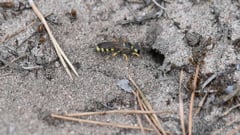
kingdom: Animalia
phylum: Arthropoda
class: Insecta
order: Hymenoptera
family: Crabronidae
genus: Cerceris
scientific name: Cerceris
